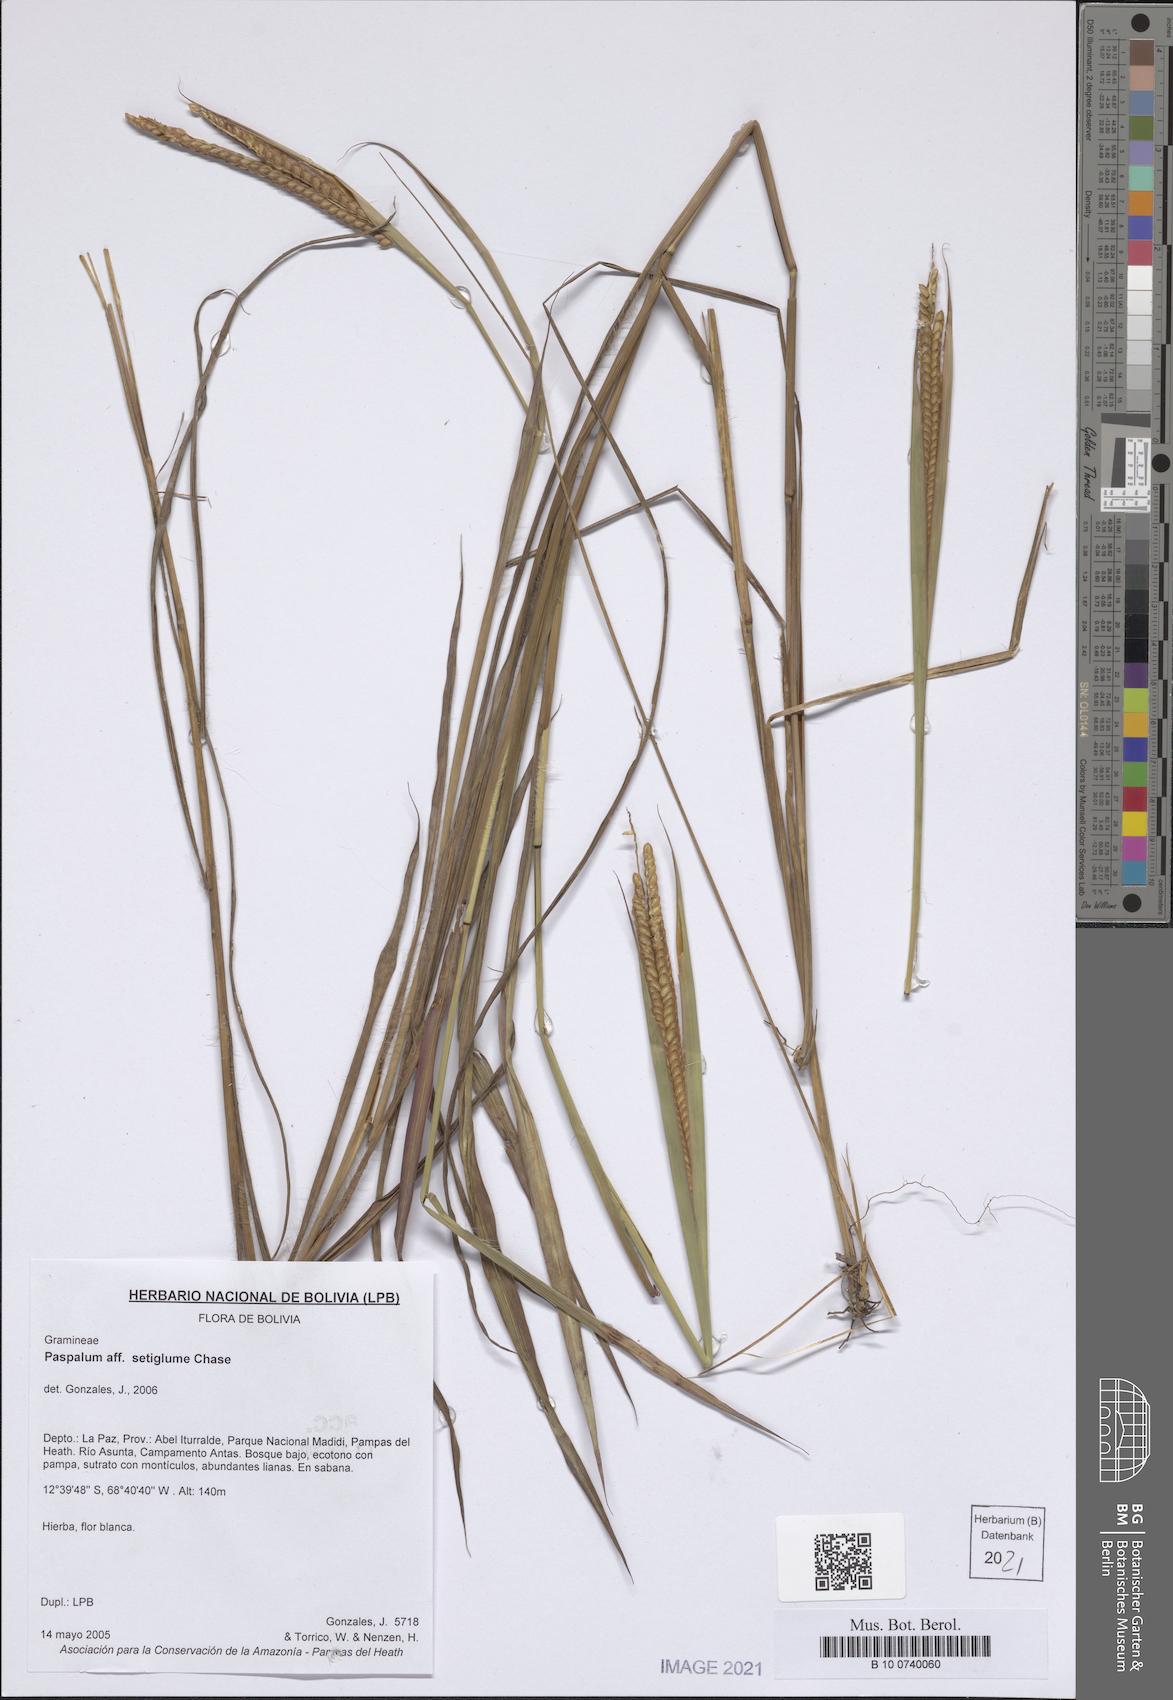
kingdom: Plantae
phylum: Tracheophyta
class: Liliopsida
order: Poales
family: Poaceae
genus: Paspalum
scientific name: Paspalum aspidiotes
